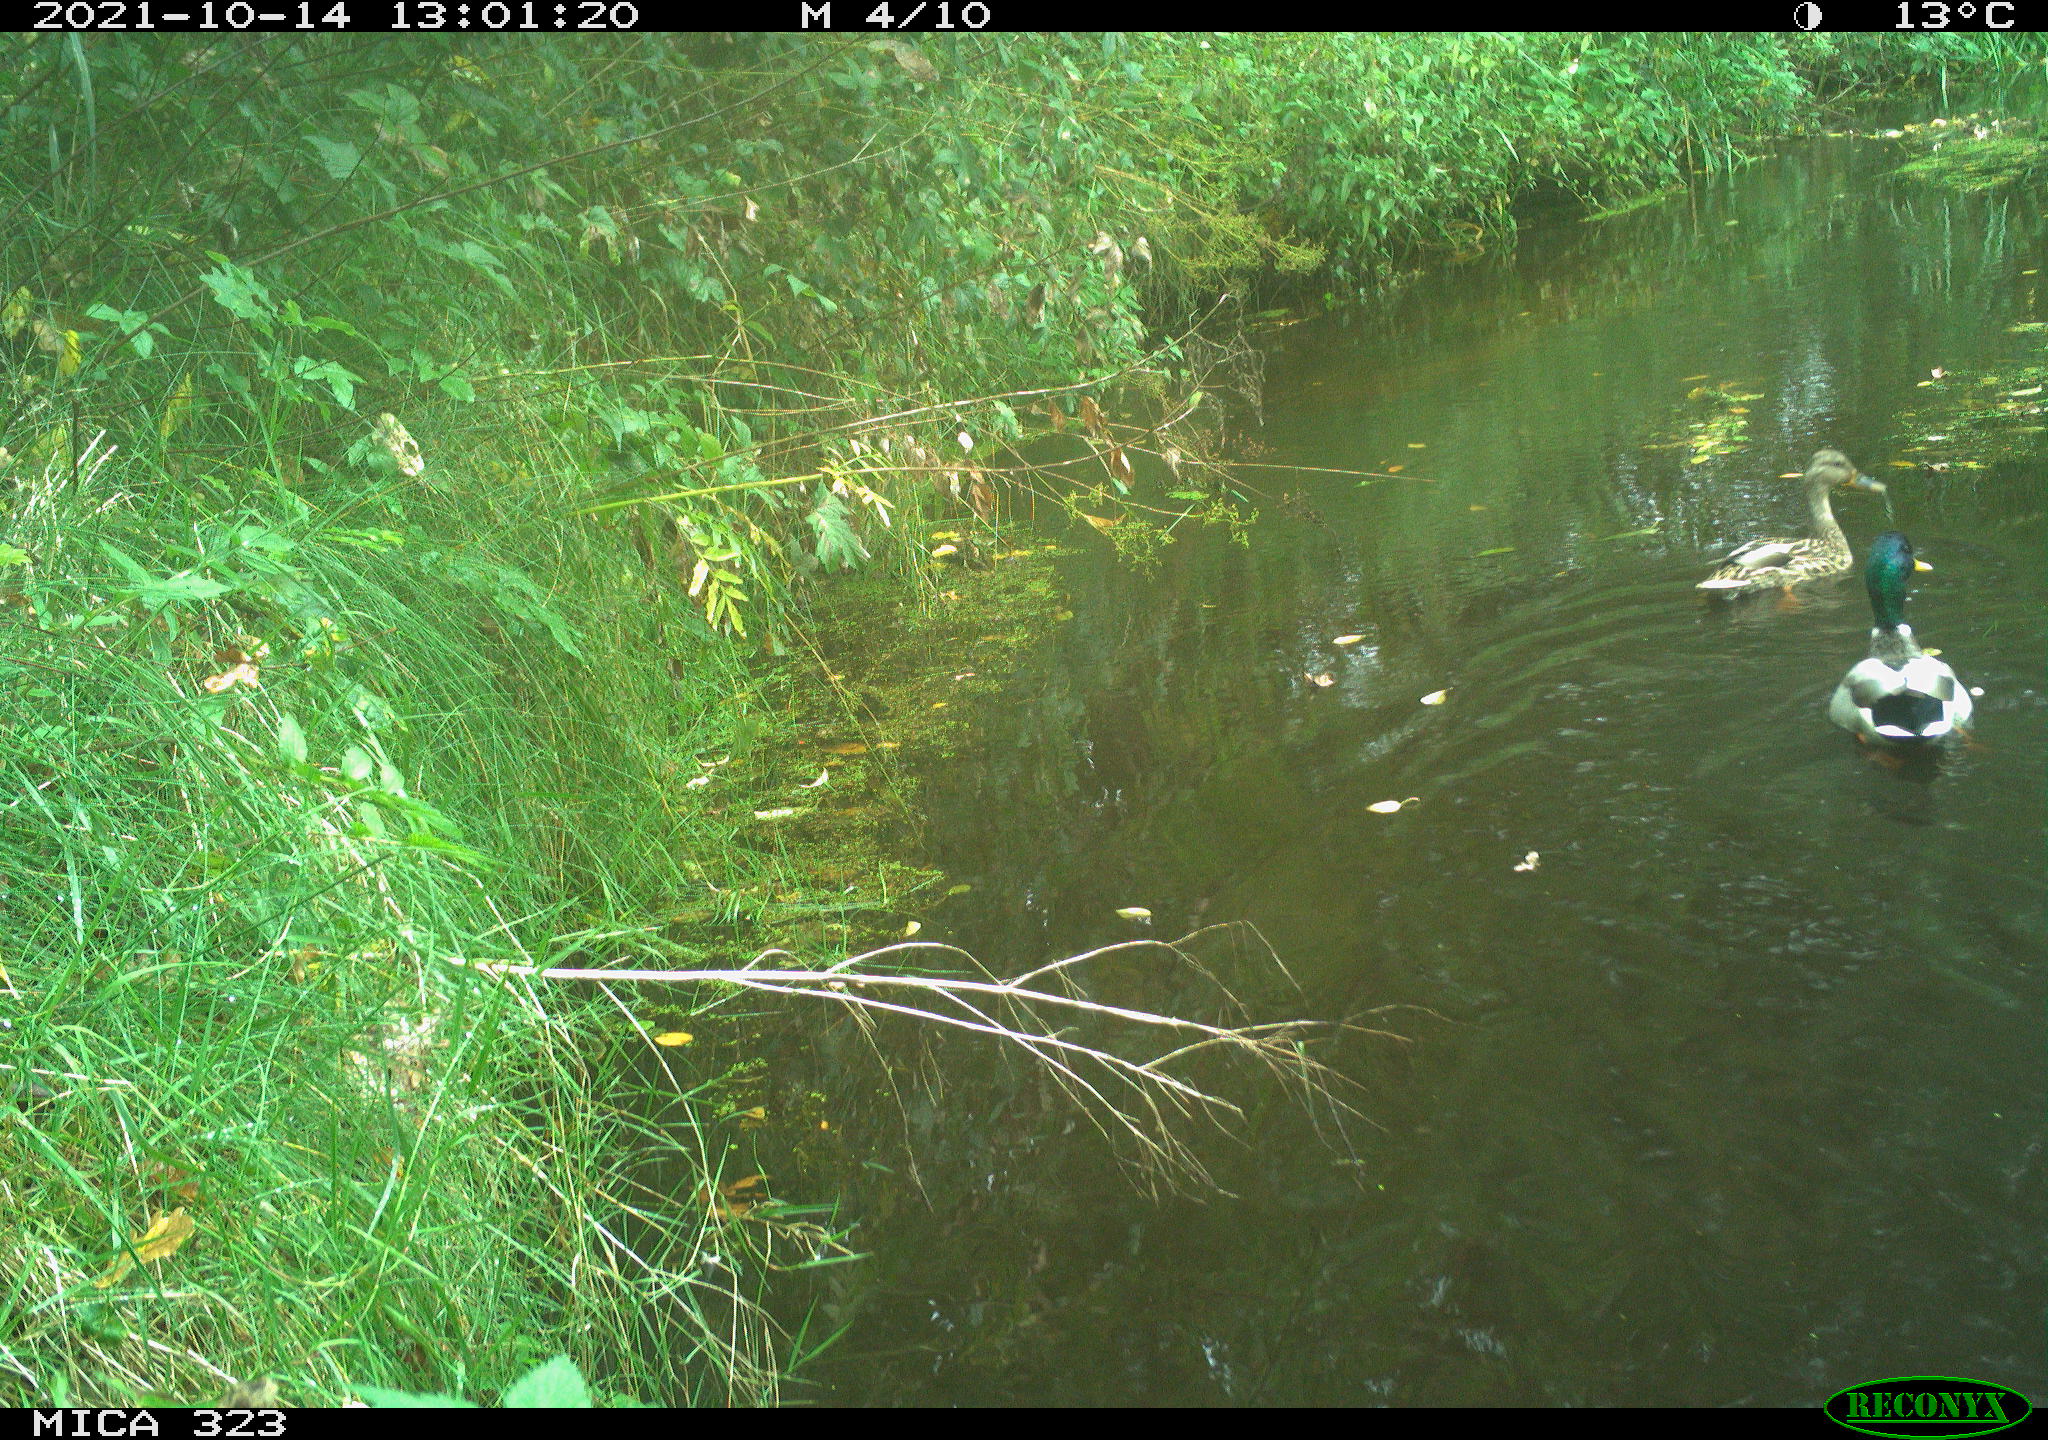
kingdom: Animalia
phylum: Chordata
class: Aves
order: Anseriformes
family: Anatidae
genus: Anas
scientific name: Anas platyrhynchos
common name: Mallard
